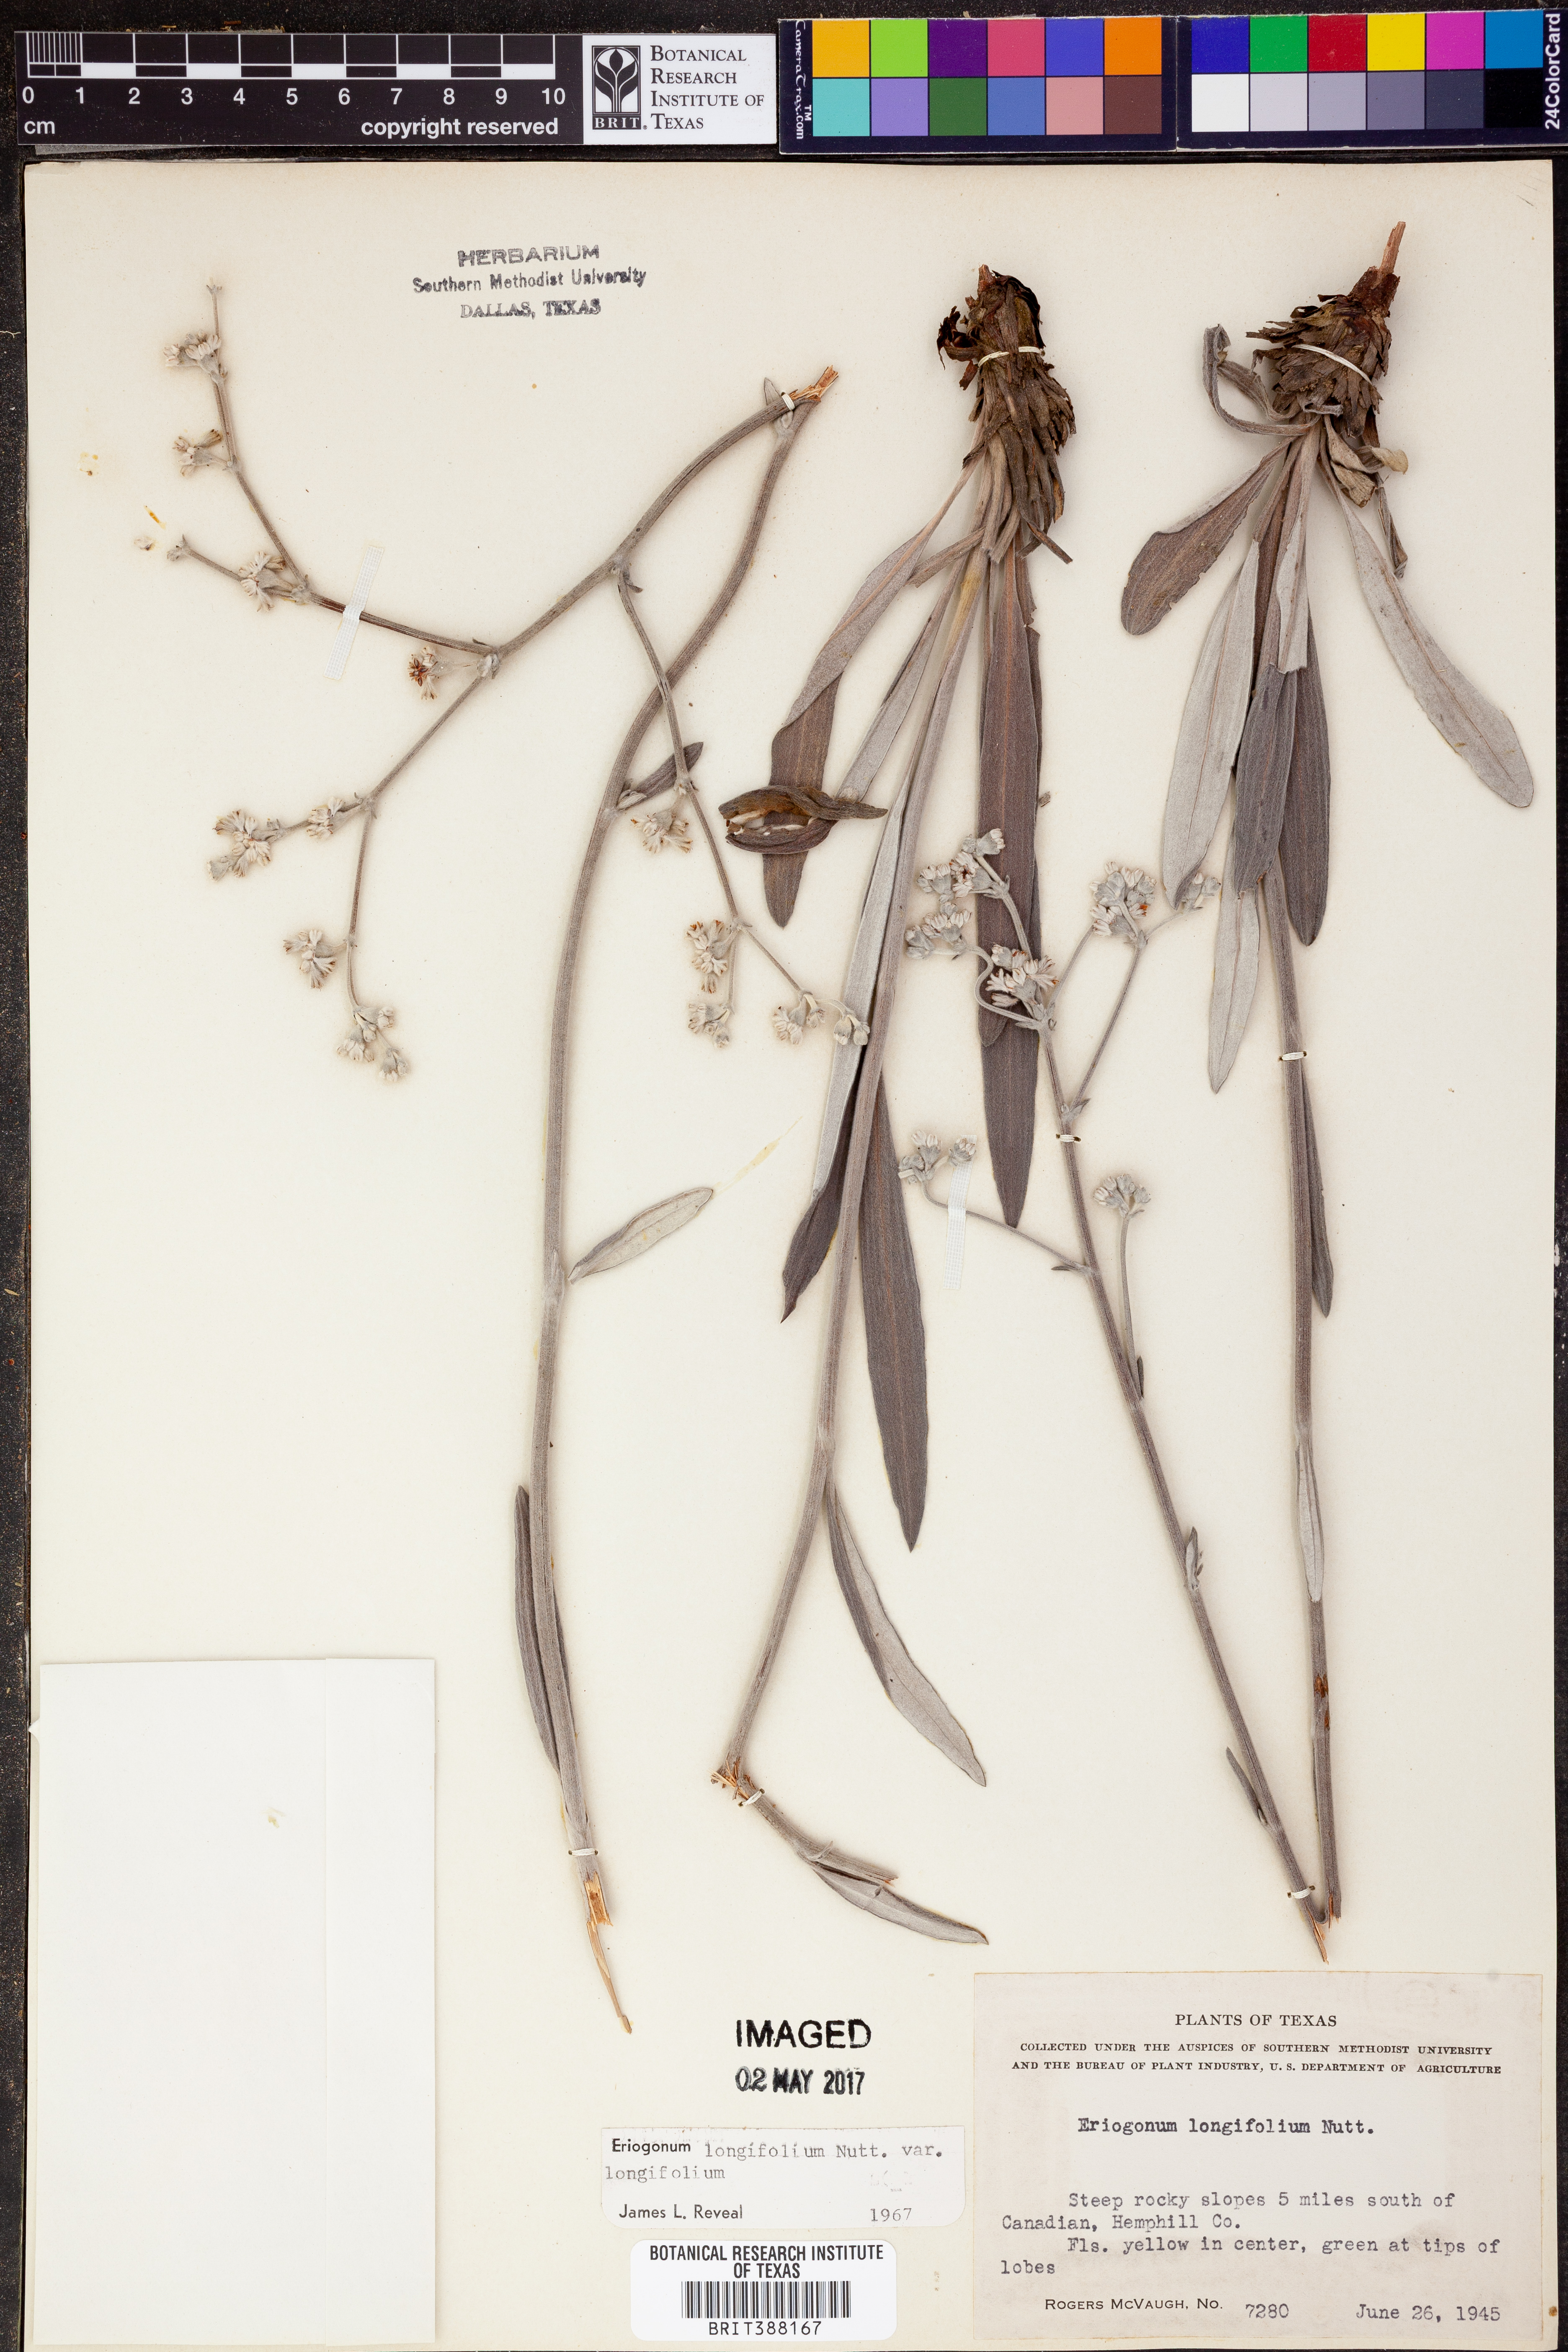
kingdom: Plantae
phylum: Tracheophyta
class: Magnoliopsida
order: Caryophyllales
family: Polygonaceae
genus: Eriogonum
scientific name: Eriogonum longifolium
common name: Longleaf wild buckwheat
